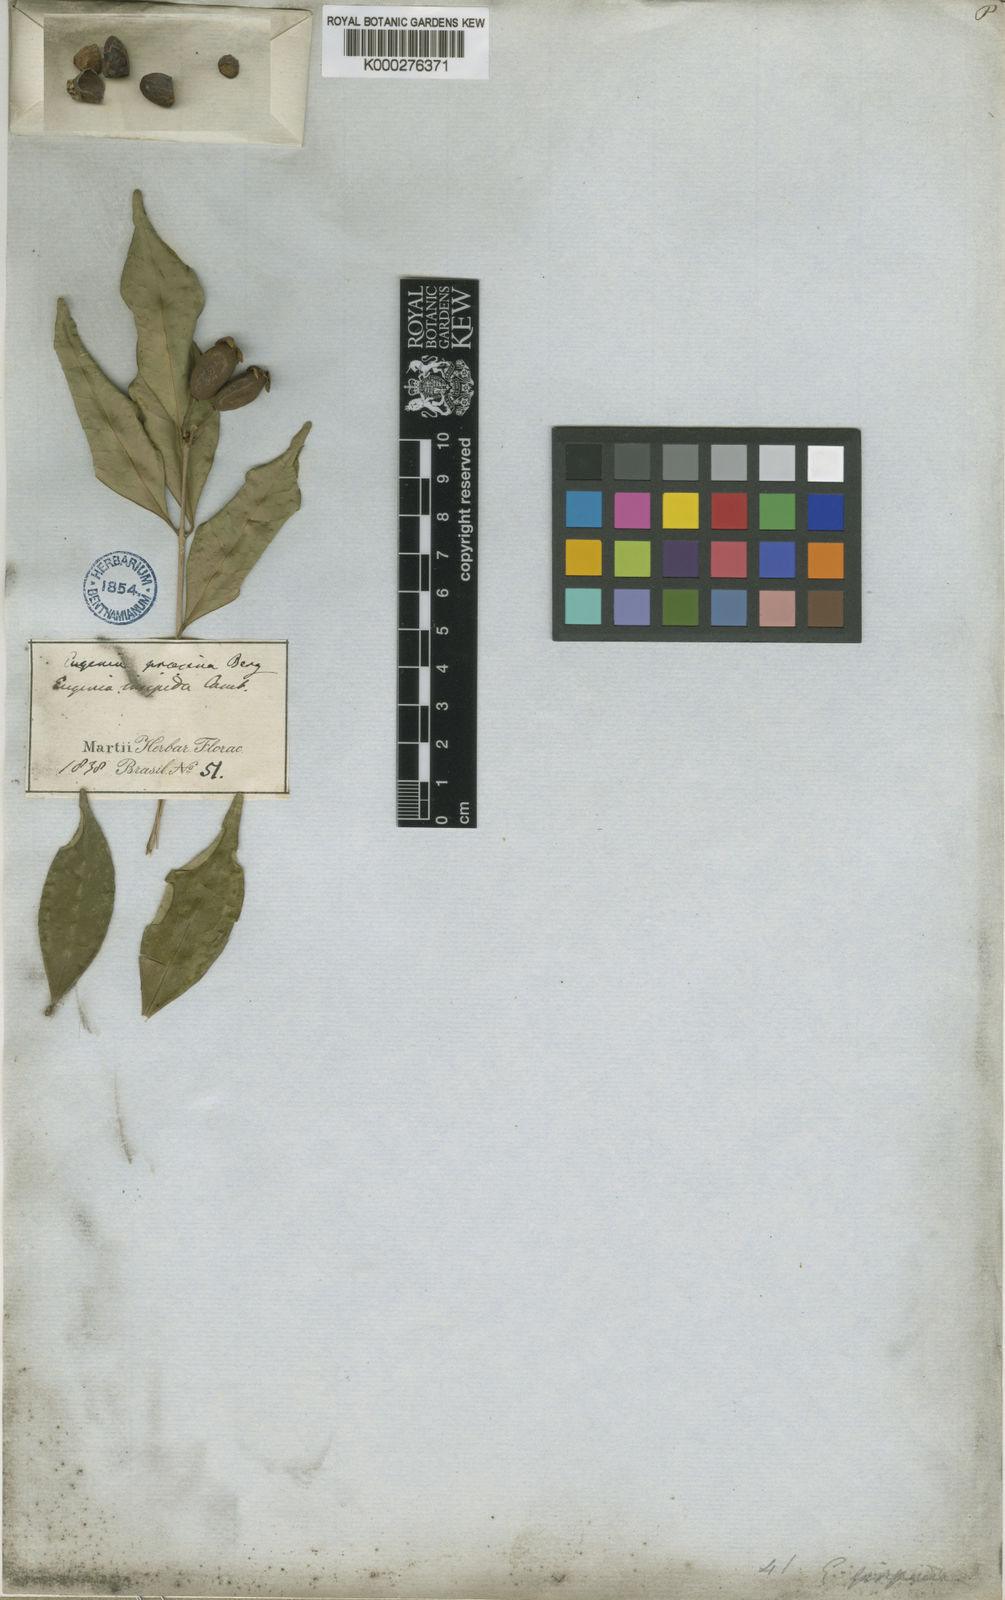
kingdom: Plantae
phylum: Tracheophyta
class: Magnoliopsida
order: Myrtales
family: Myrtaceae
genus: Eugenia
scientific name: Eugenia prasina
